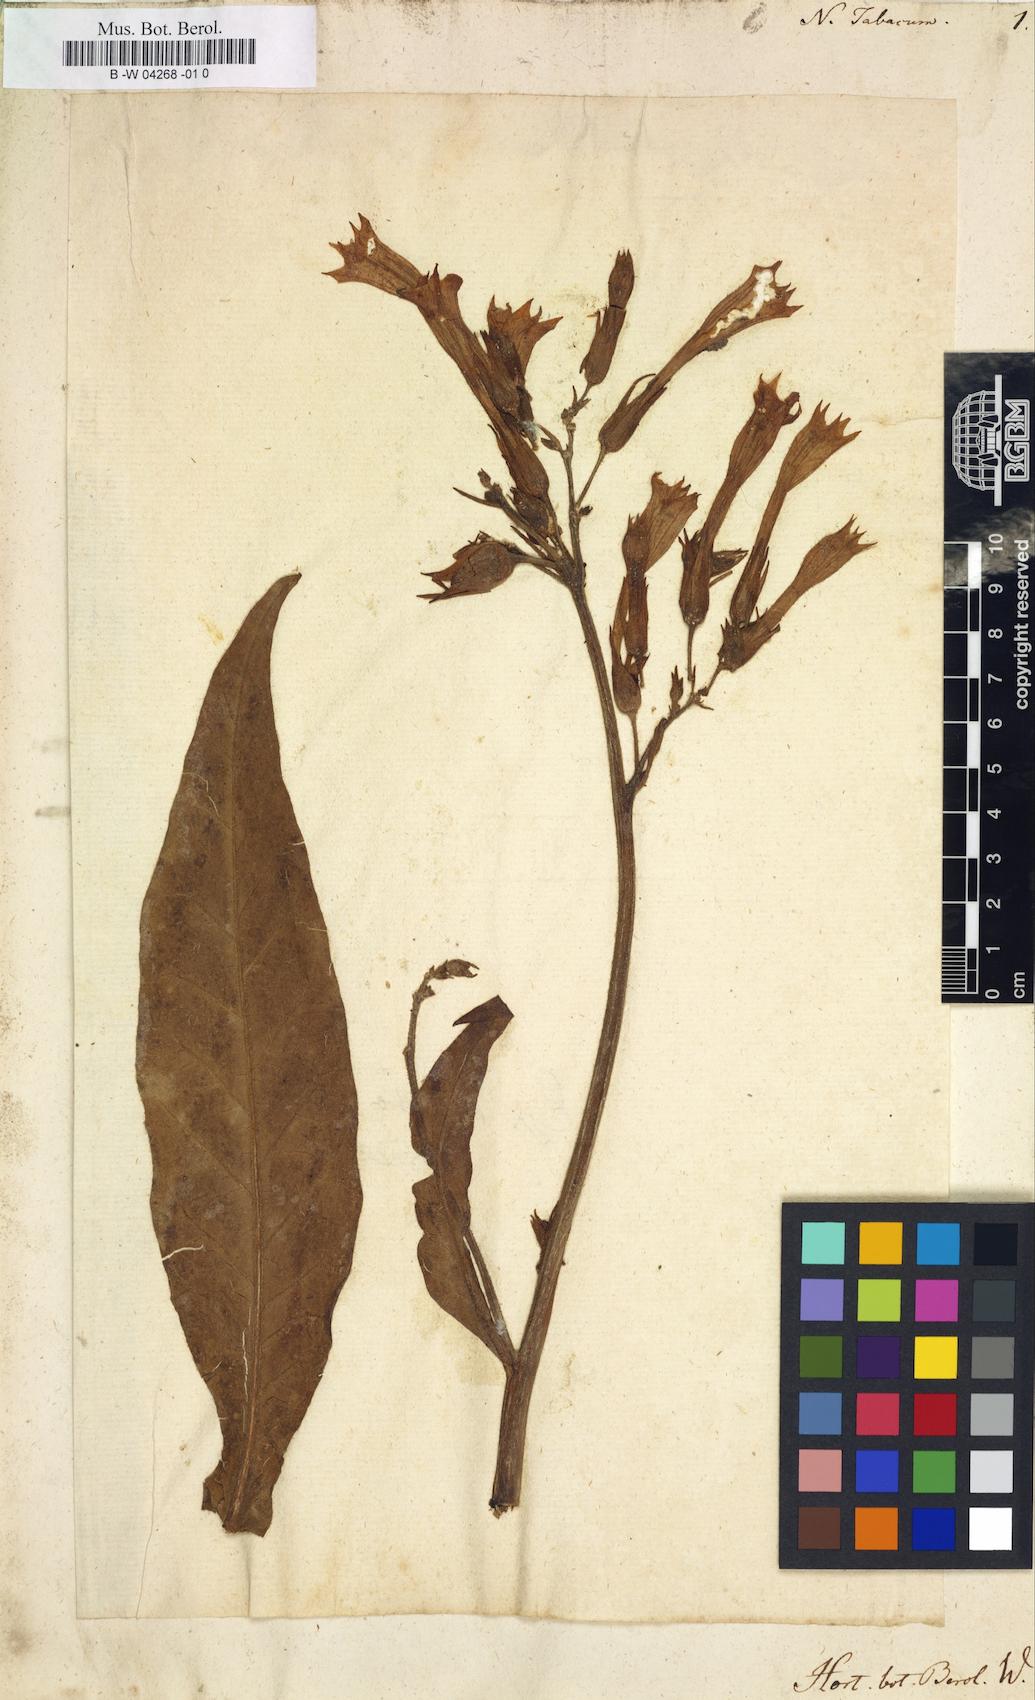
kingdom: Plantae
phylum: Tracheophyta
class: Magnoliopsida
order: Solanales
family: Solanaceae
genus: Nicotiana
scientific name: Nicotiana tabacum
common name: Tobacco
